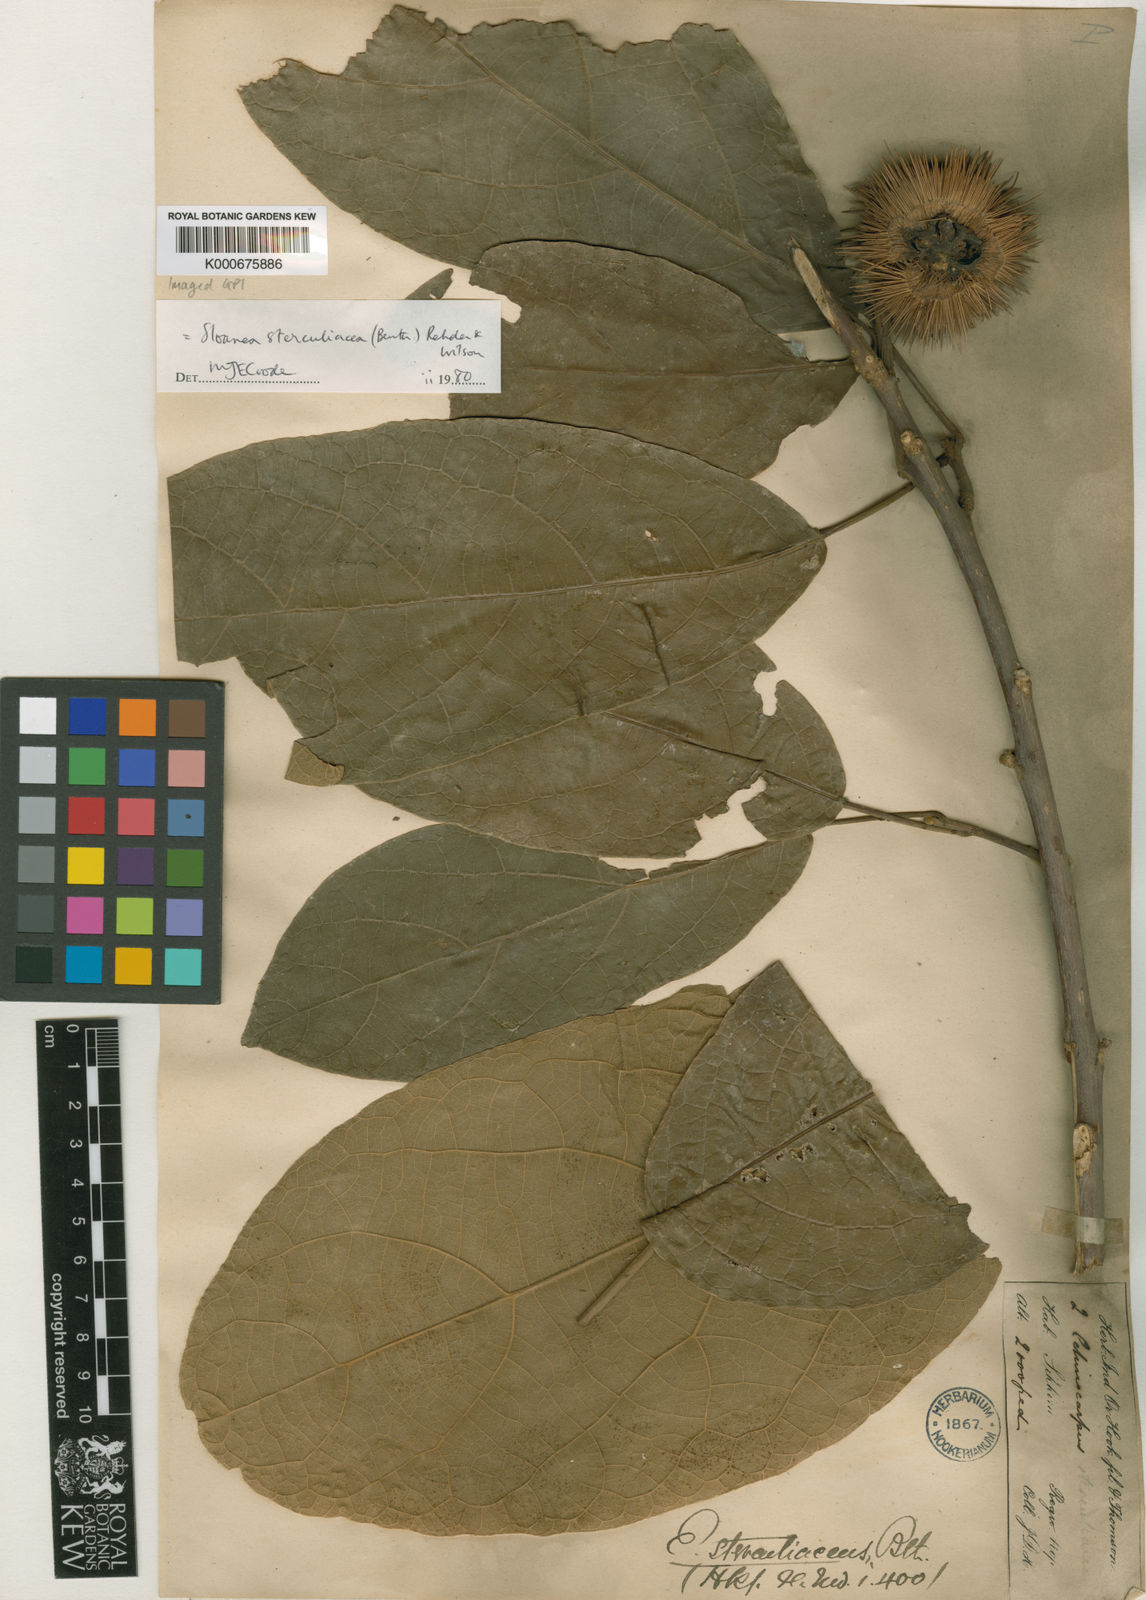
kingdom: Plantae
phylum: Tracheophyta
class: Magnoliopsida
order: Oxalidales
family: Elaeocarpaceae
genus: Sloanea
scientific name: Sloanea sterculiacea
